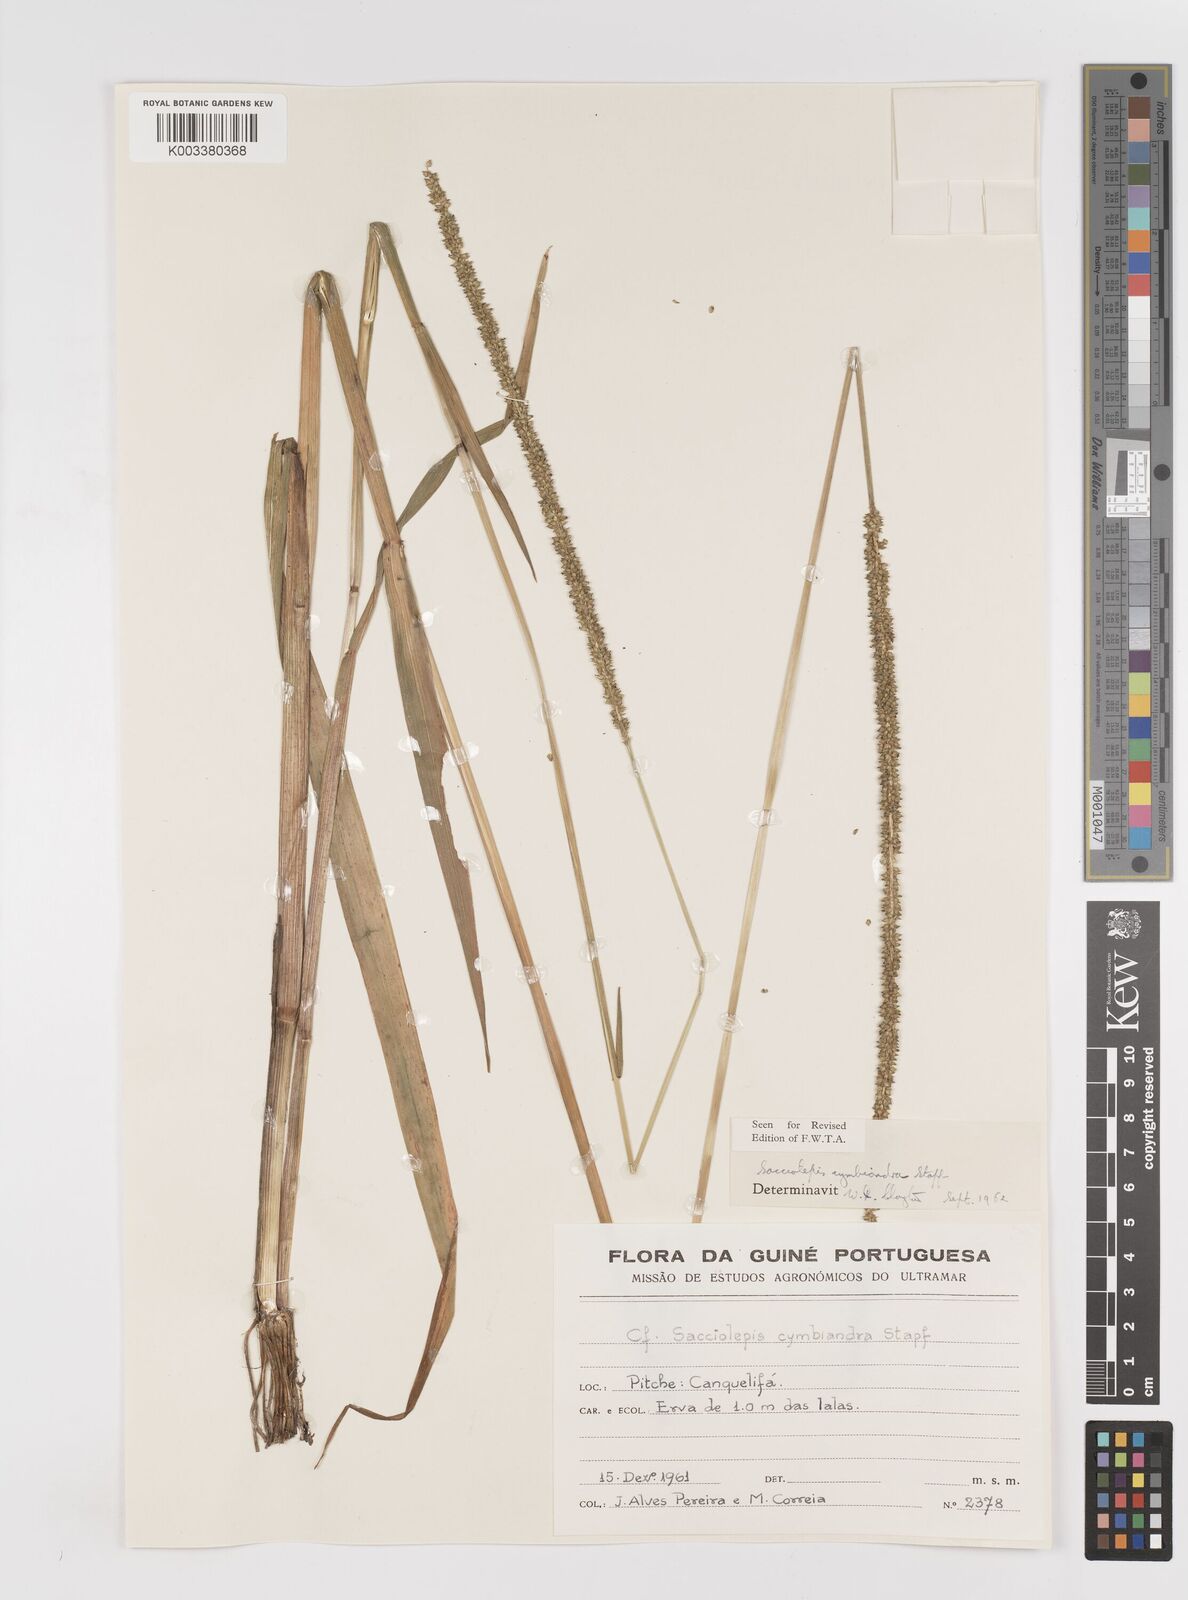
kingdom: Plantae
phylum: Tracheophyta
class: Liliopsida
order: Poales
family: Poaceae
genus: Sacciolepis
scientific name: Sacciolepis cymbiandra
